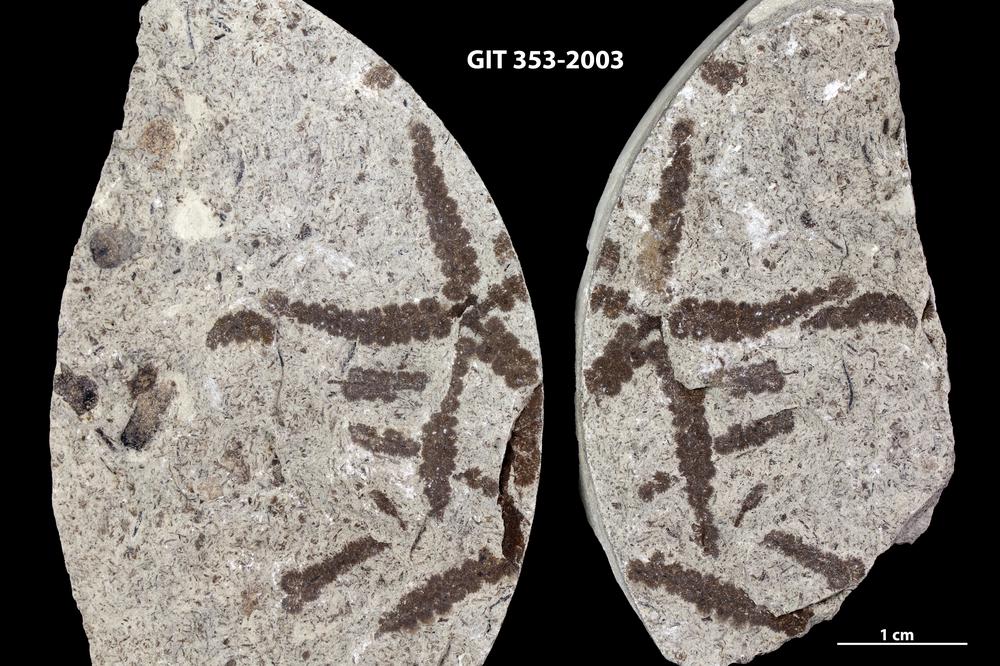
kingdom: Plantae
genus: Leveilleites
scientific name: Leveilleites hartnageli
